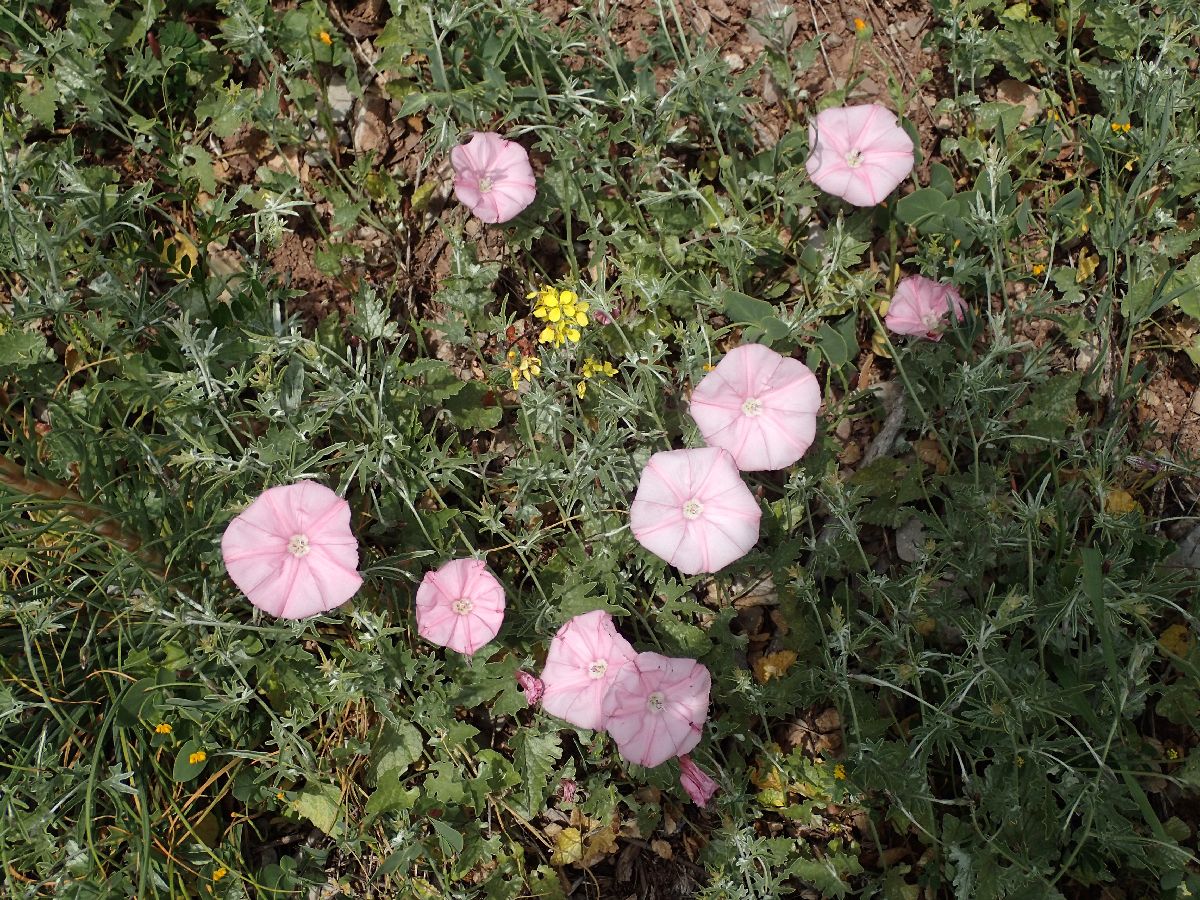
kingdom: Plantae
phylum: Tracheophyta
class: Magnoliopsida
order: Solanales
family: Convolvulaceae
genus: Convolvulus
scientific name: Convolvulus althaeoides
